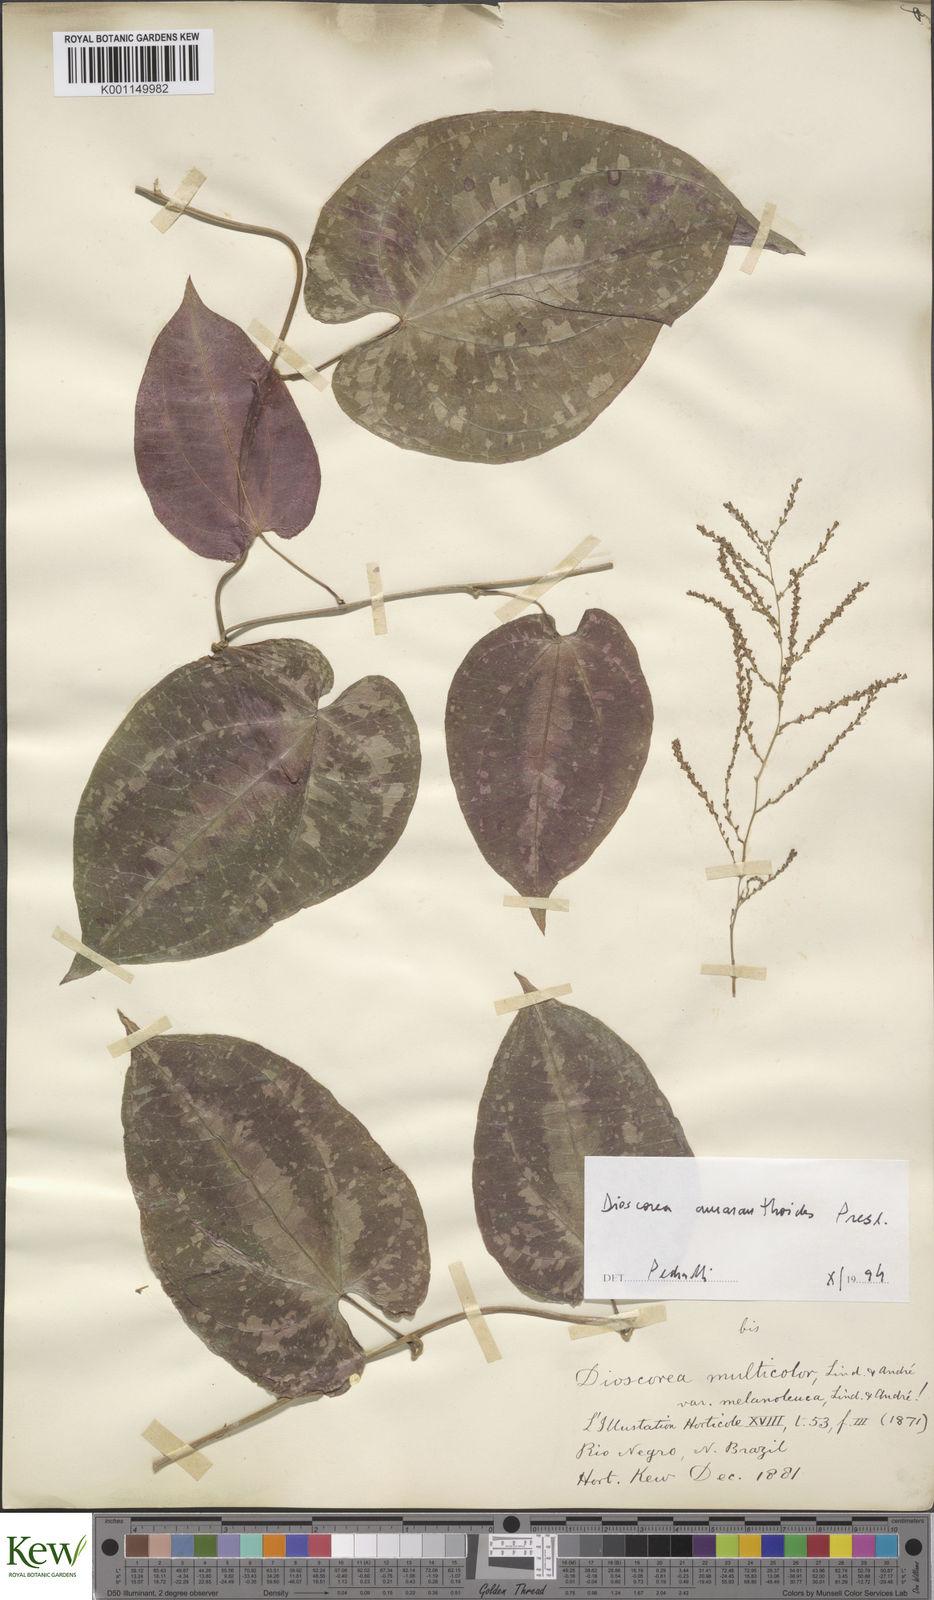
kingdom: Plantae
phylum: Tracheophyta
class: Liliopsida
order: Dioscoreales
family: Dioscoreaceae
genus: Dioscorea
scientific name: Dioscorea amaranthoides
